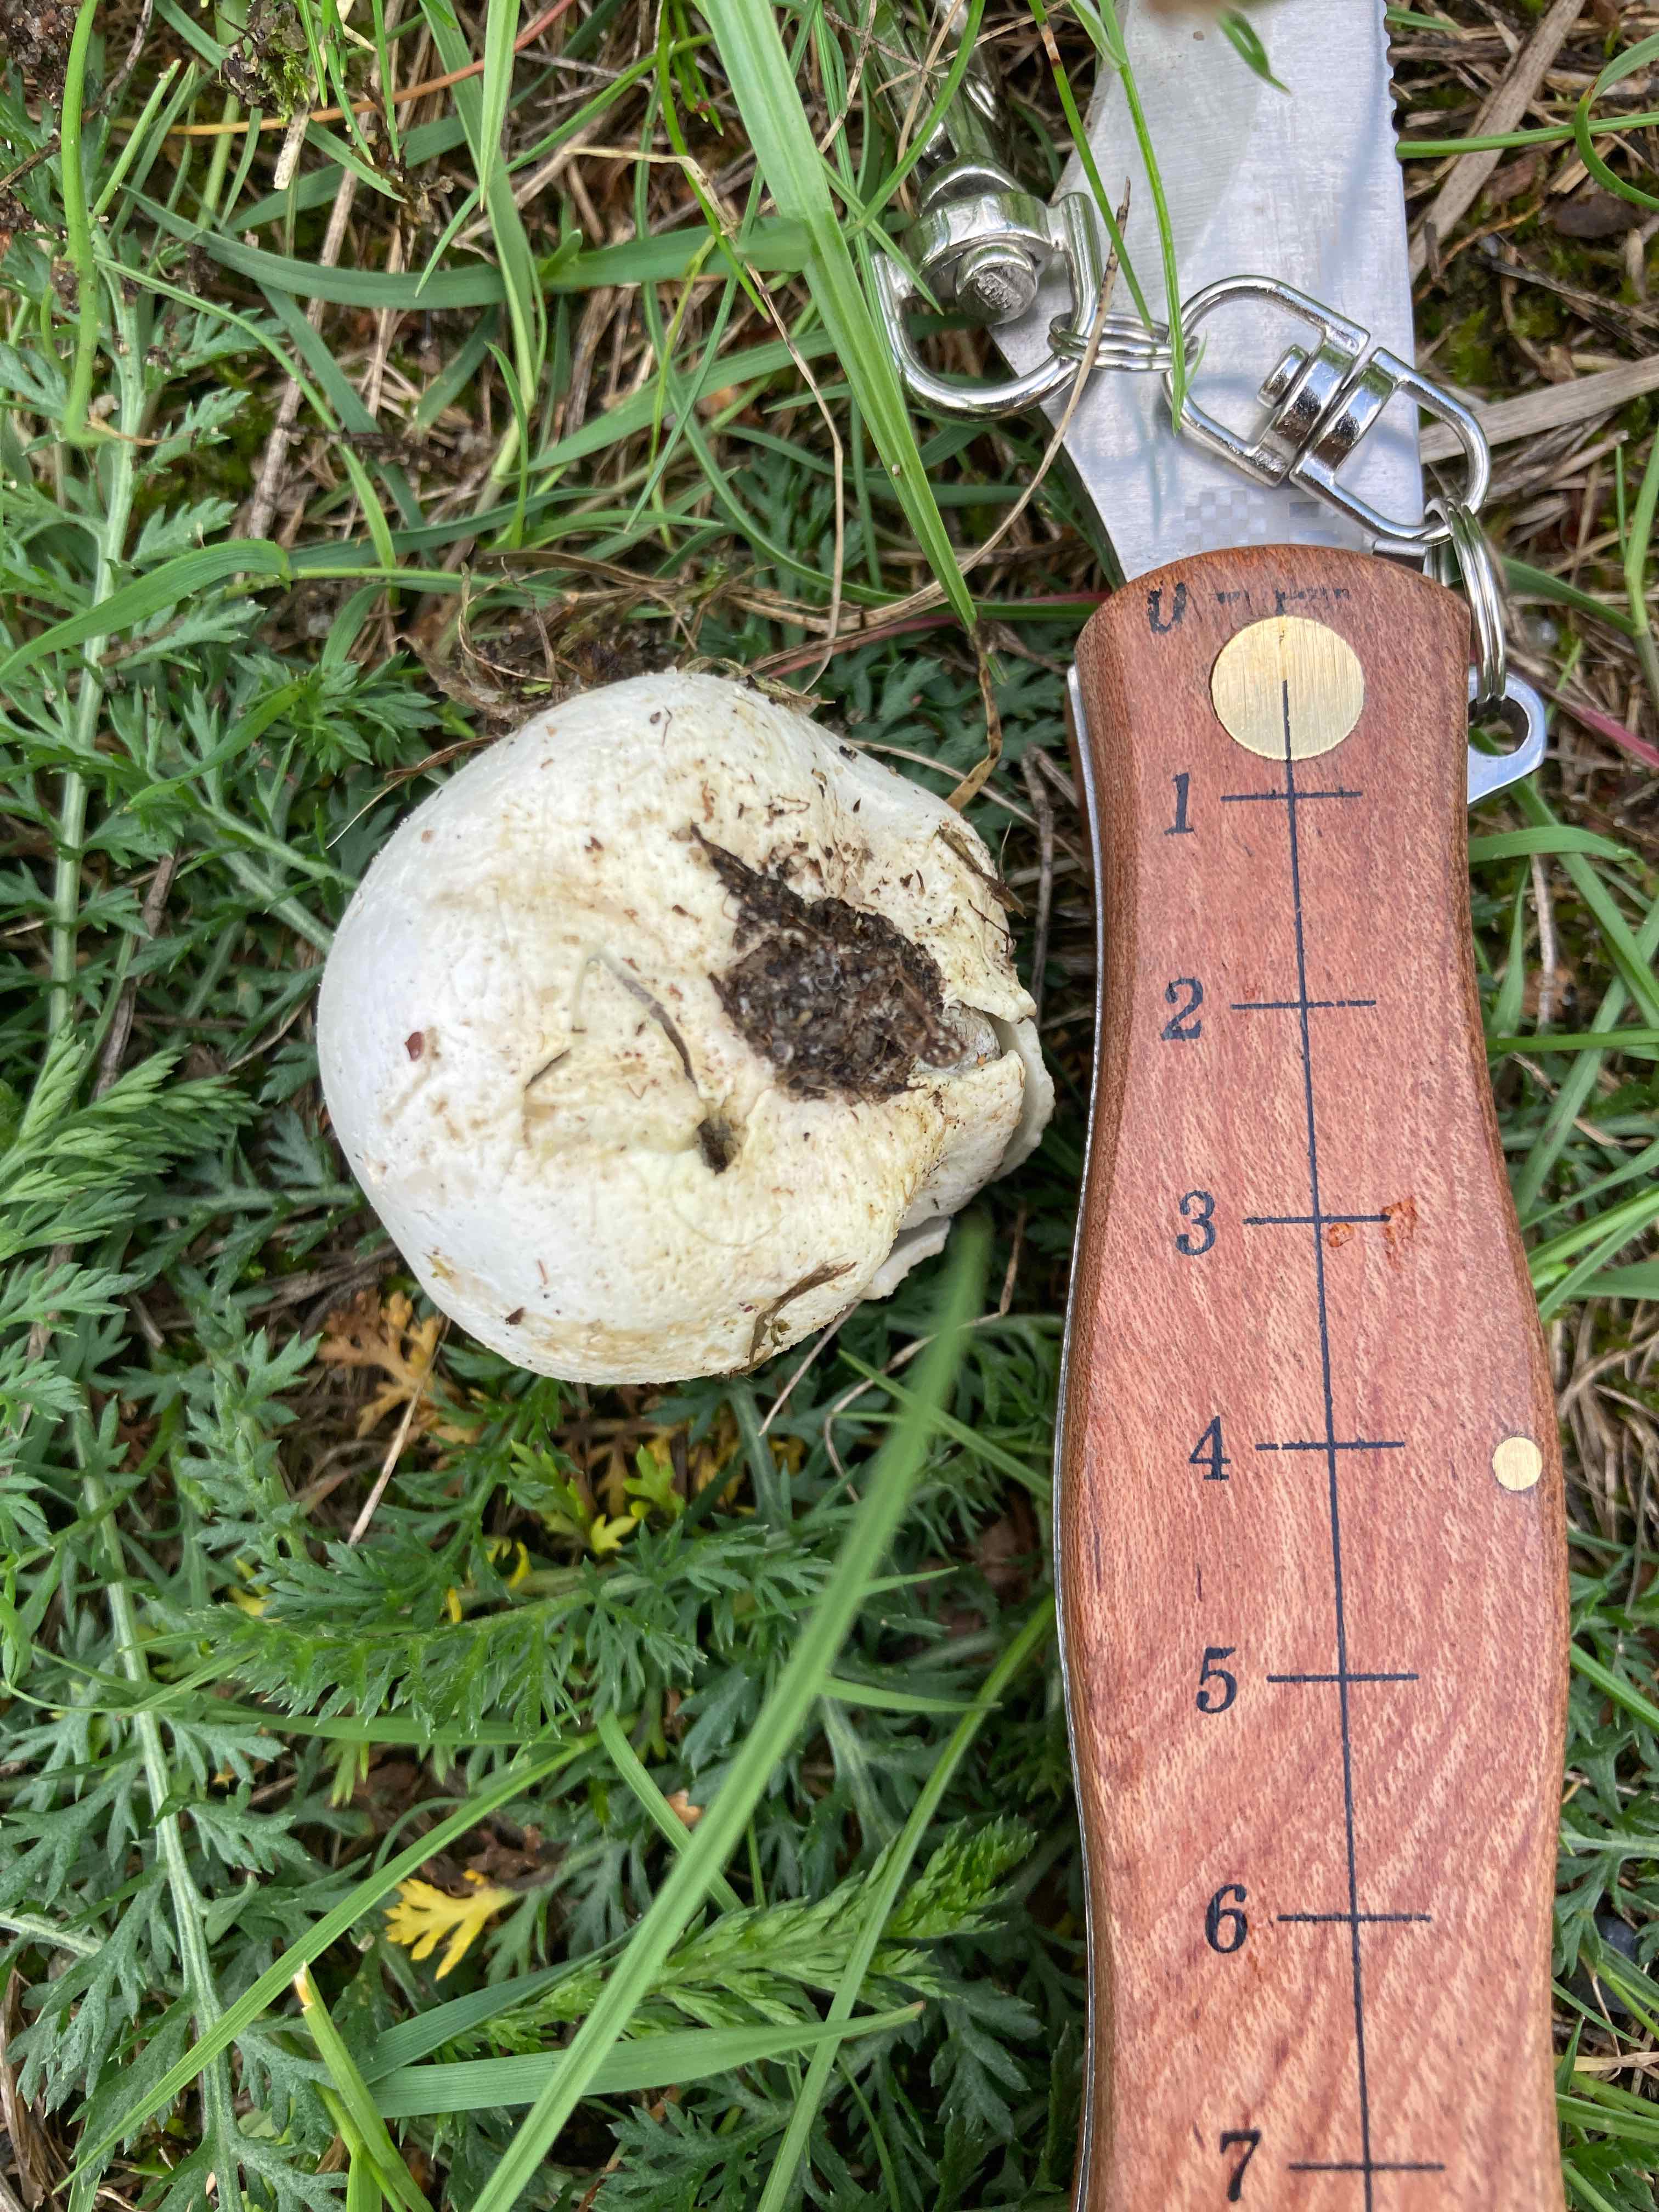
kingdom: Fungi
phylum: Basidiomycota
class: Agaricomycetes
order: Agaricales
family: Lycoperdaceae
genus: Bovista
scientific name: Bovista plumbea
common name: blygrå bovist
